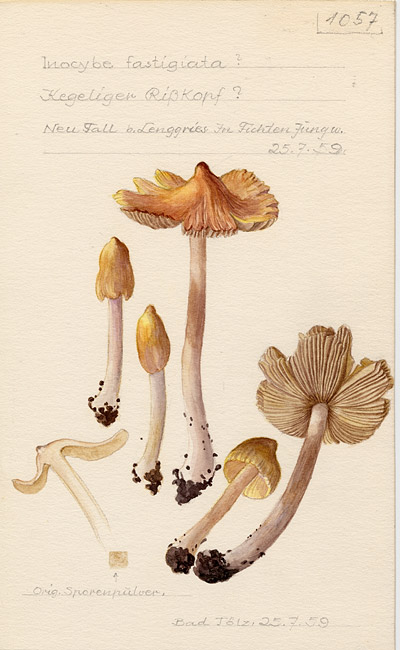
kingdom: Fungi
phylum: Basidiomycota
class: Agaricomycetes
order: Agaricales
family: Inocybaceae
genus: Pseudosperma
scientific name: Pseudosperma rimosum
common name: Split fibrecap
